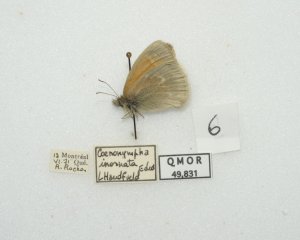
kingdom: Animalia
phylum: Arthropoda
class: Insecta
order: Lepidoptera
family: Nymphalidae
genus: Coenonympha
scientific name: Coenonympha tullia
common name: Large Heath
